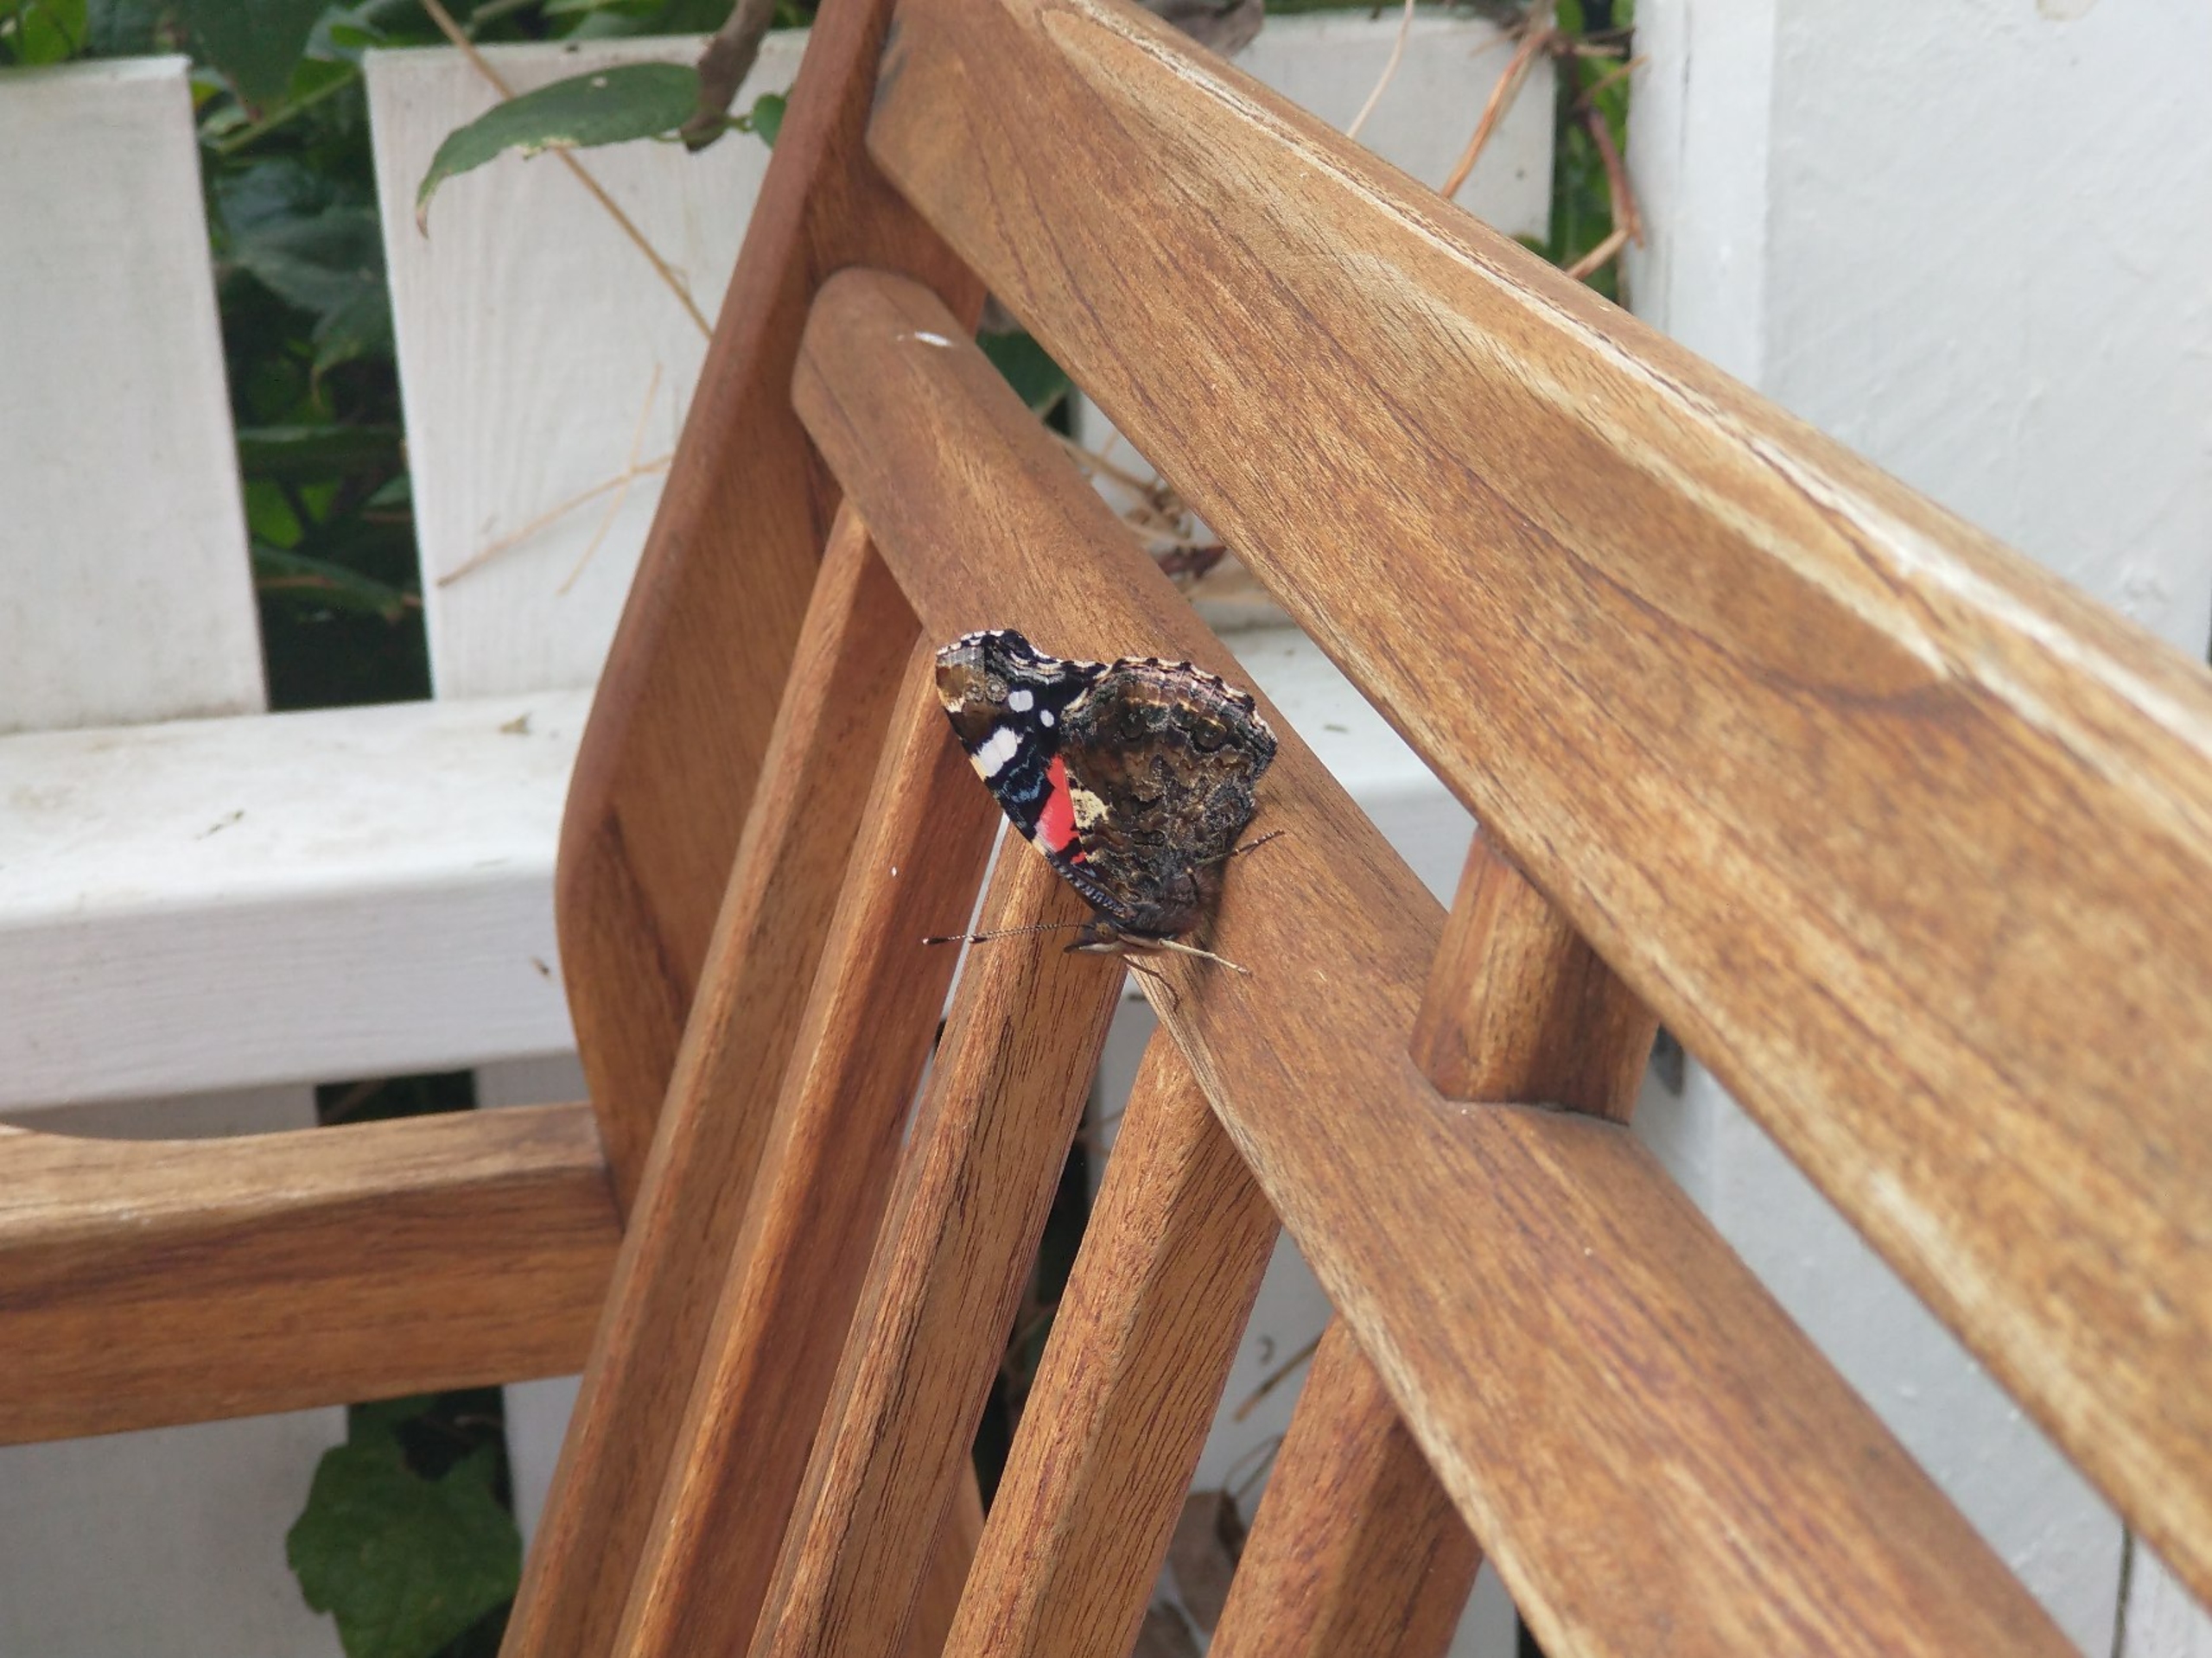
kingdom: Animalia
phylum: Arthropoda
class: Insecta
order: Lepidoptera
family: Nymphalidae
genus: Vanessa
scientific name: Vanessa atalanta
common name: Admiral
